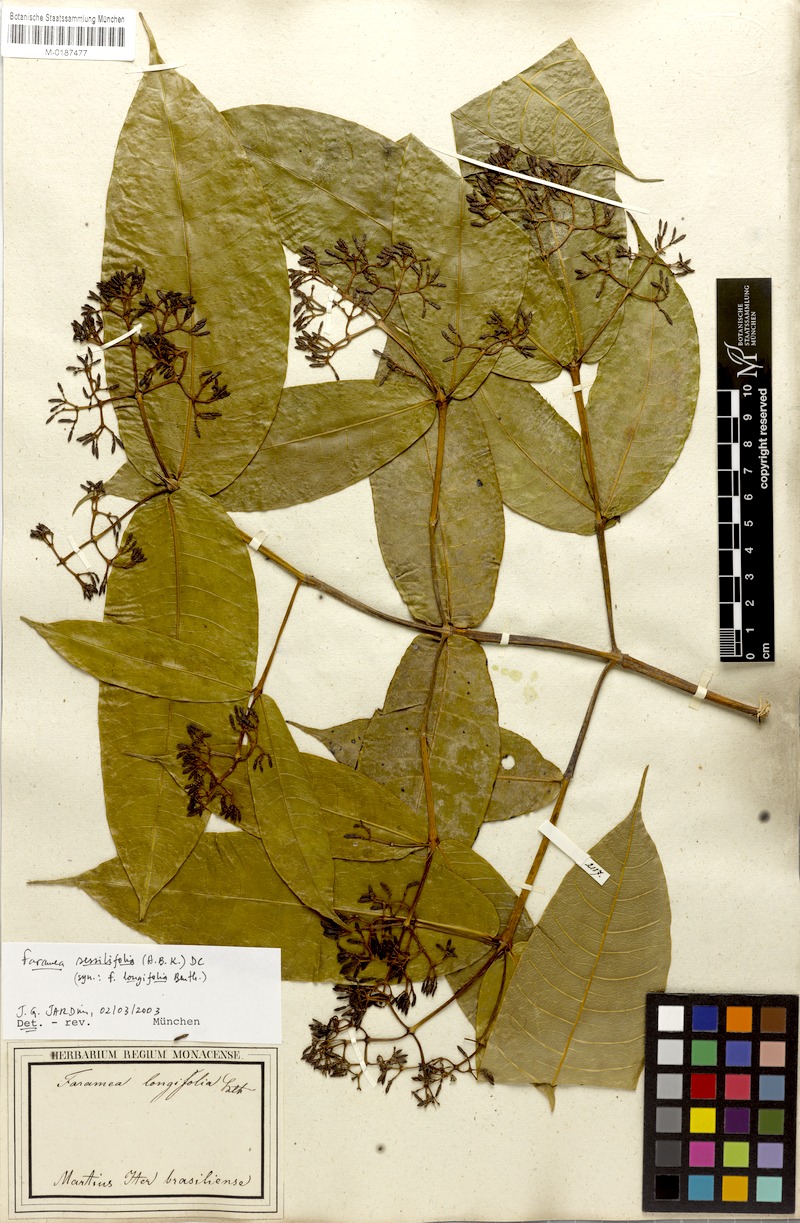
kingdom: Plantae
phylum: Tracheophyta
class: Magnoliopsida
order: Gentianales
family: Rubiaceae
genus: Faramea
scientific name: Faramea sessilifolia
